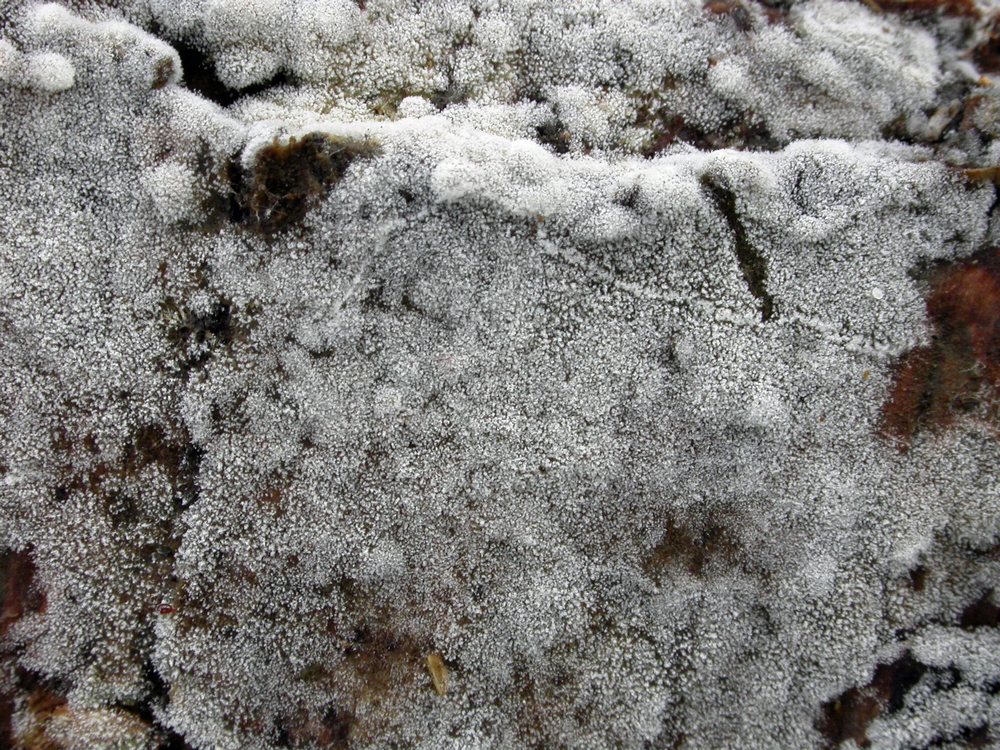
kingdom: Fungi
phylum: Basidiomycota
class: Agaricomycetes
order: Cantharellales
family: Botryobasidiaceae
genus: Botryobasidium
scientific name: Botryobasidium capitatum
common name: kalkhvid spindhinde
